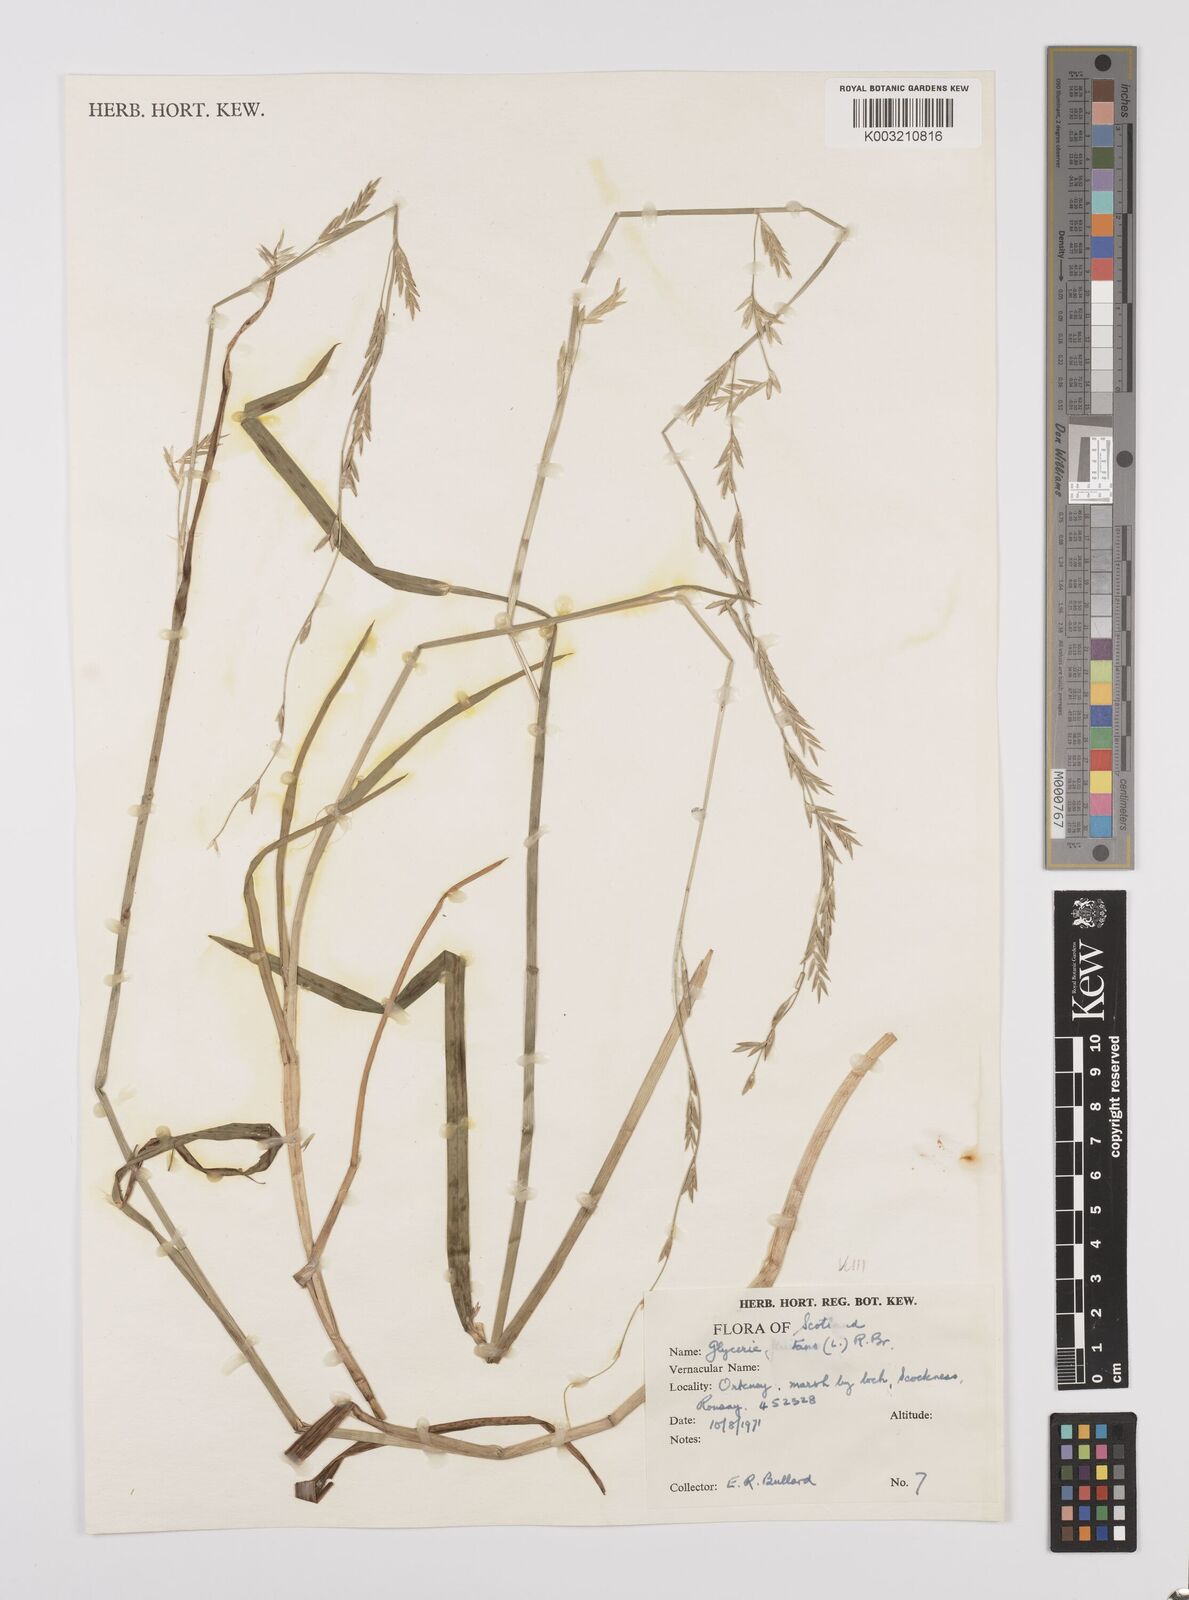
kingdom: Plantae
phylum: Tracheophyta
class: Liliopsida
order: Poales
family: Poaceae
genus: Glyceria
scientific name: Glyceria fluitans
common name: Floating sweet-grass
